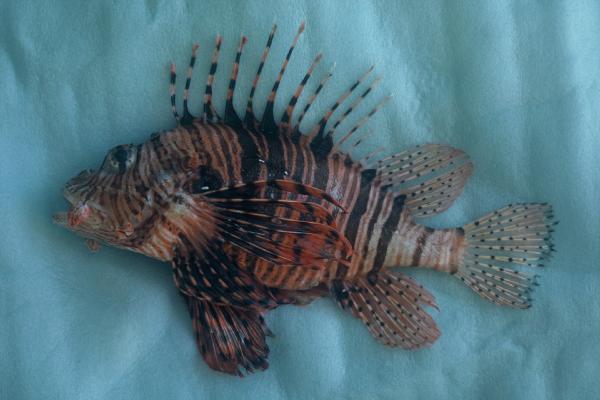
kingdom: Animalia
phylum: Chordata
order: Scorpaeniformes
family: Scorpaenidae
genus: Pterois
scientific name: Pterois miles
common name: Devil firefish
